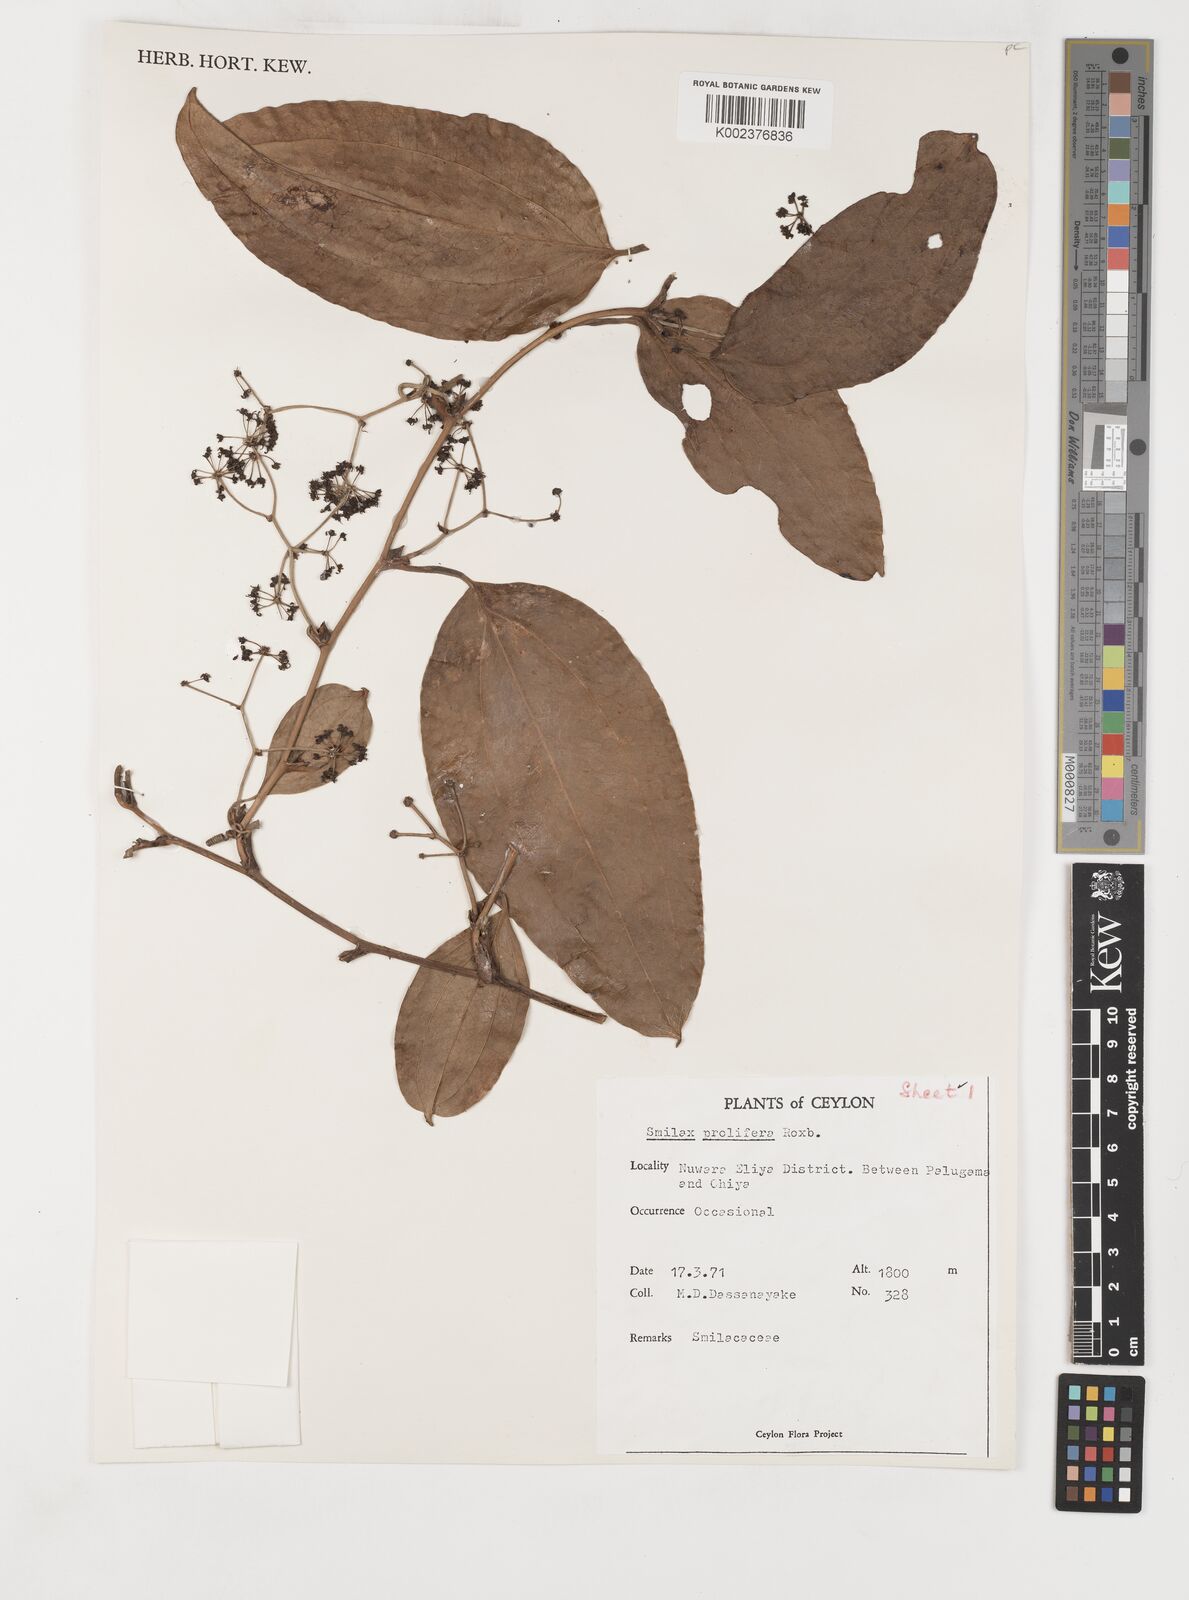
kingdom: Plantae
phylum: Tracheophyta
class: Liliopsida
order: Liliales
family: Smilacaceae
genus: Smilax
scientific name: Smilax prolifera
